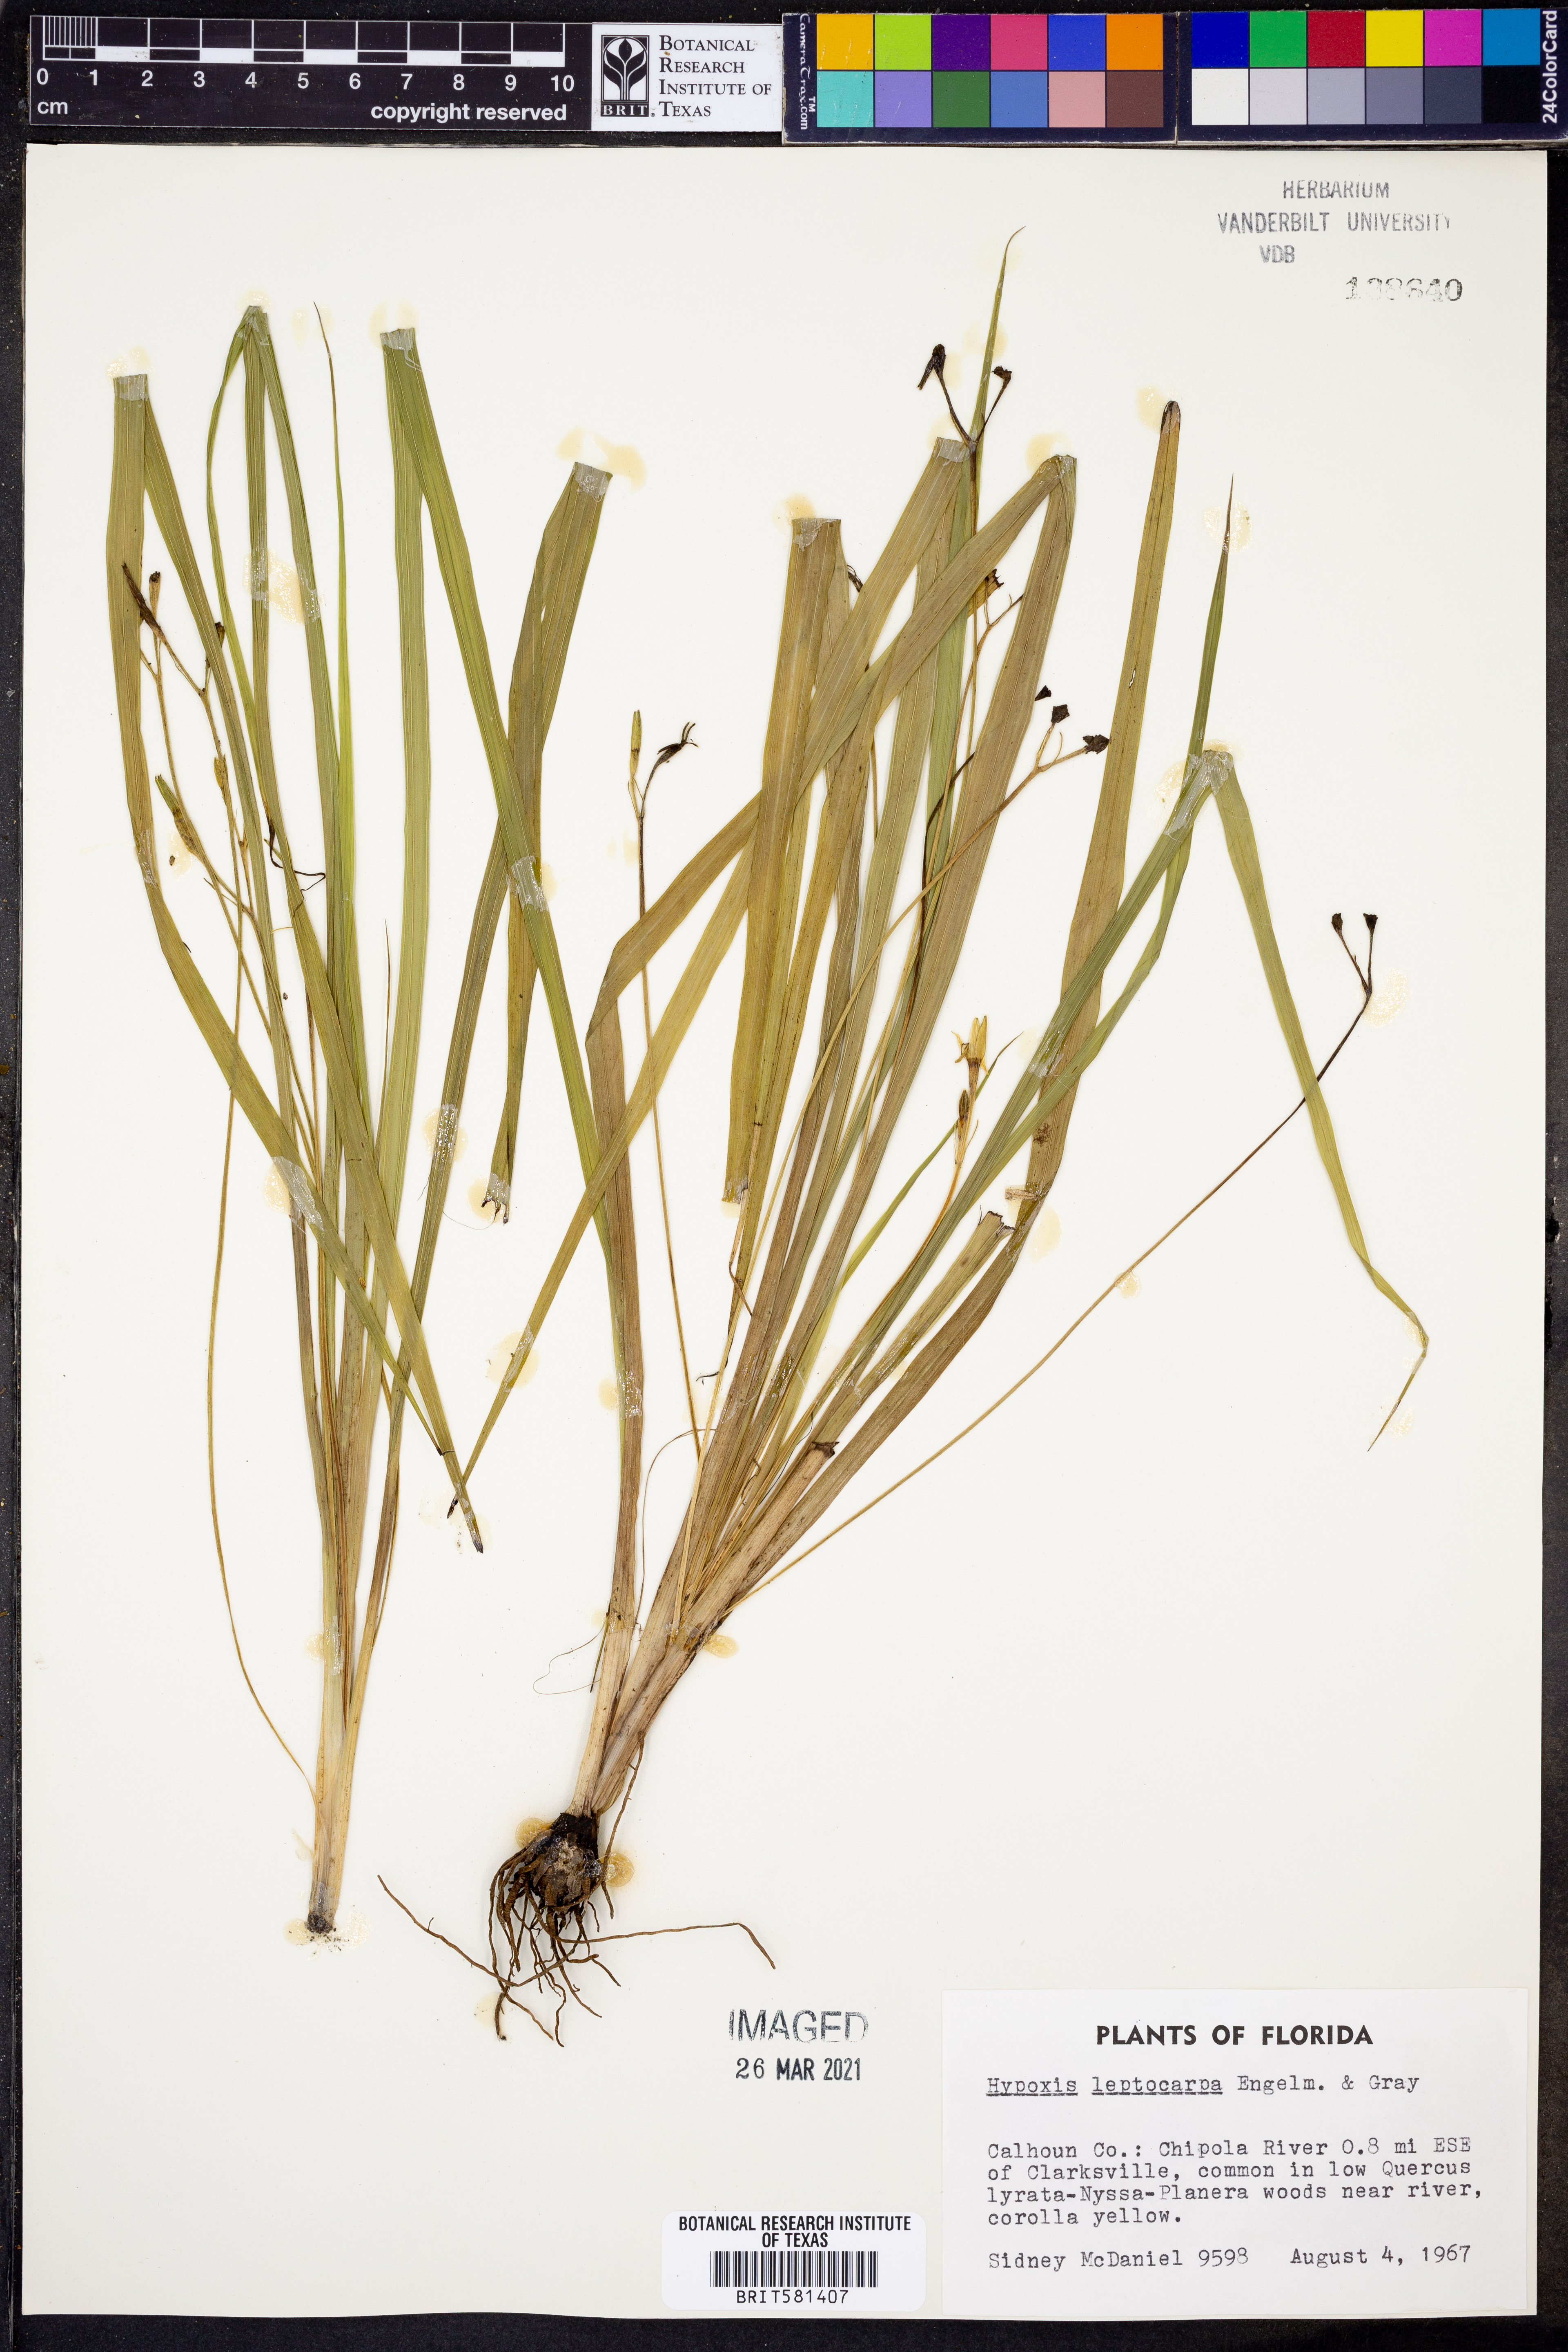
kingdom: Plantae
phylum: Tracheophyta
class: Liliopsida
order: Asparagales
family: Hypoxidaceae
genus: Hypoxis
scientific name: Hypoxis curtissii
